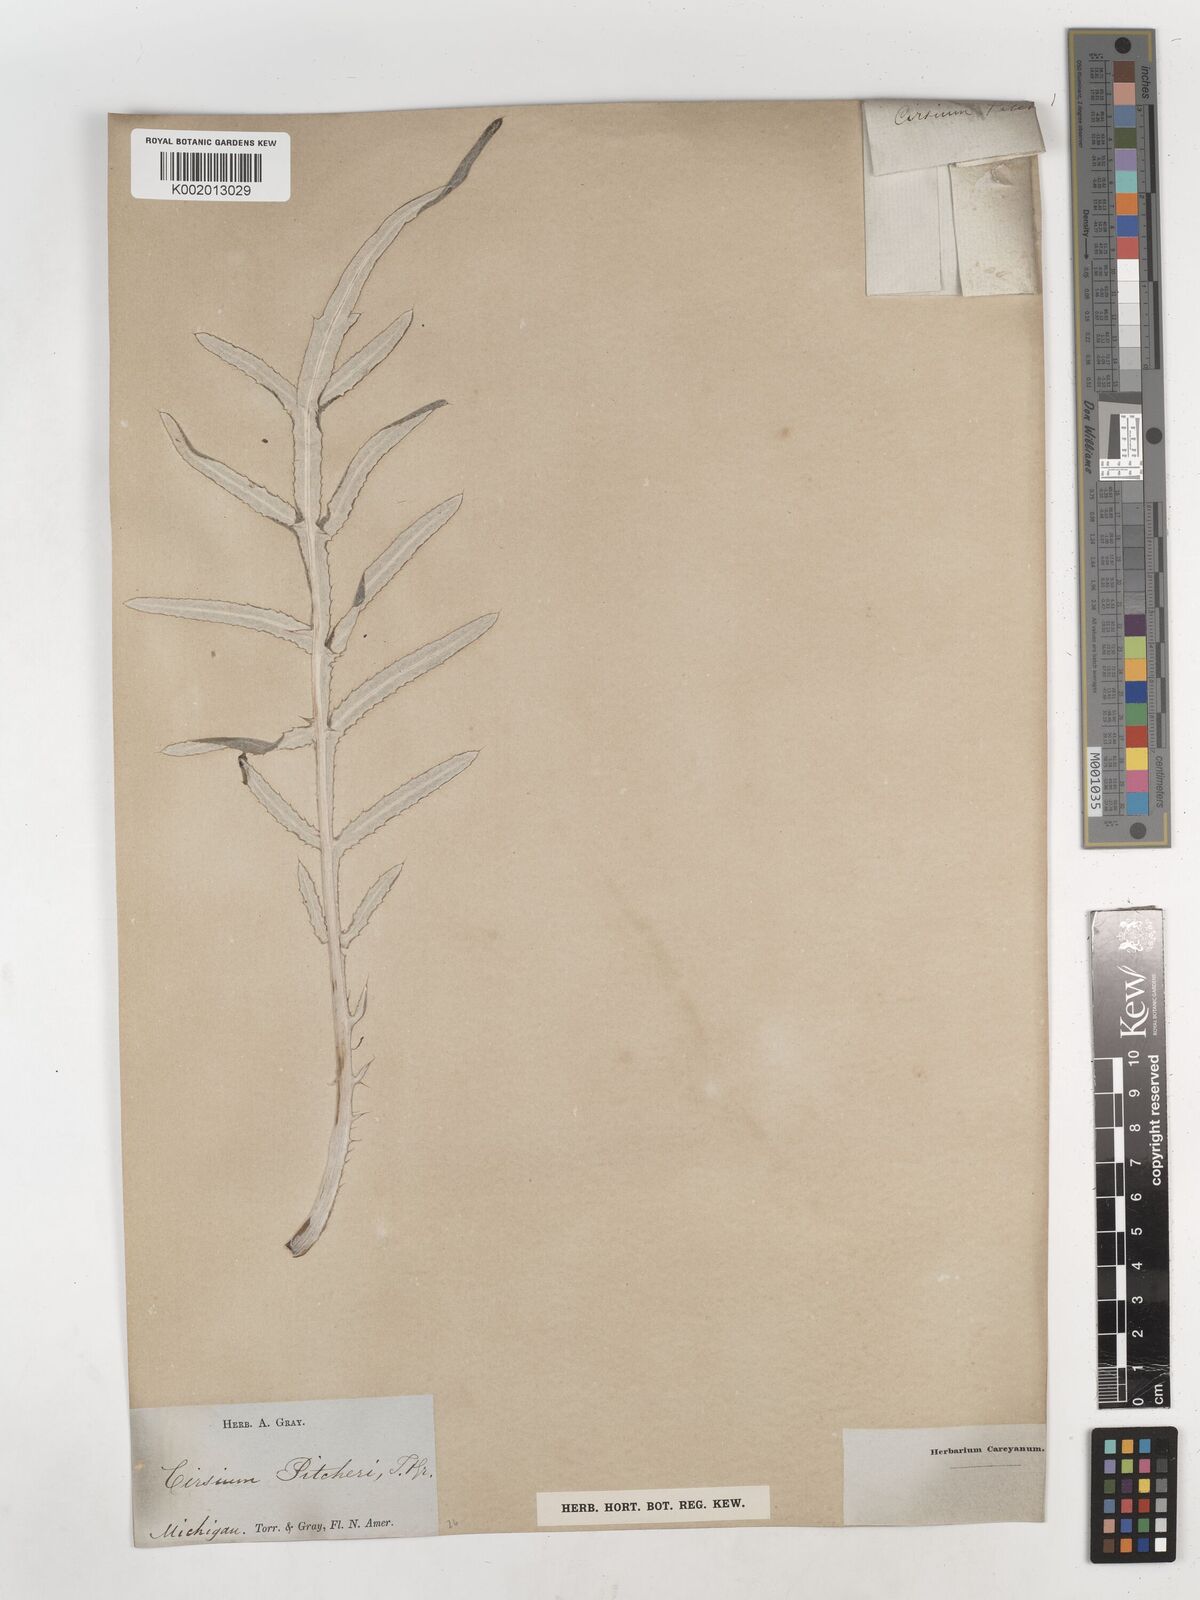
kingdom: Plantae
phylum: Tracheophyta
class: Magnoliopsida
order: Asterales
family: Asteraceae
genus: Cirsium
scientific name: Cirsium pitcheri
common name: Dune thistle
